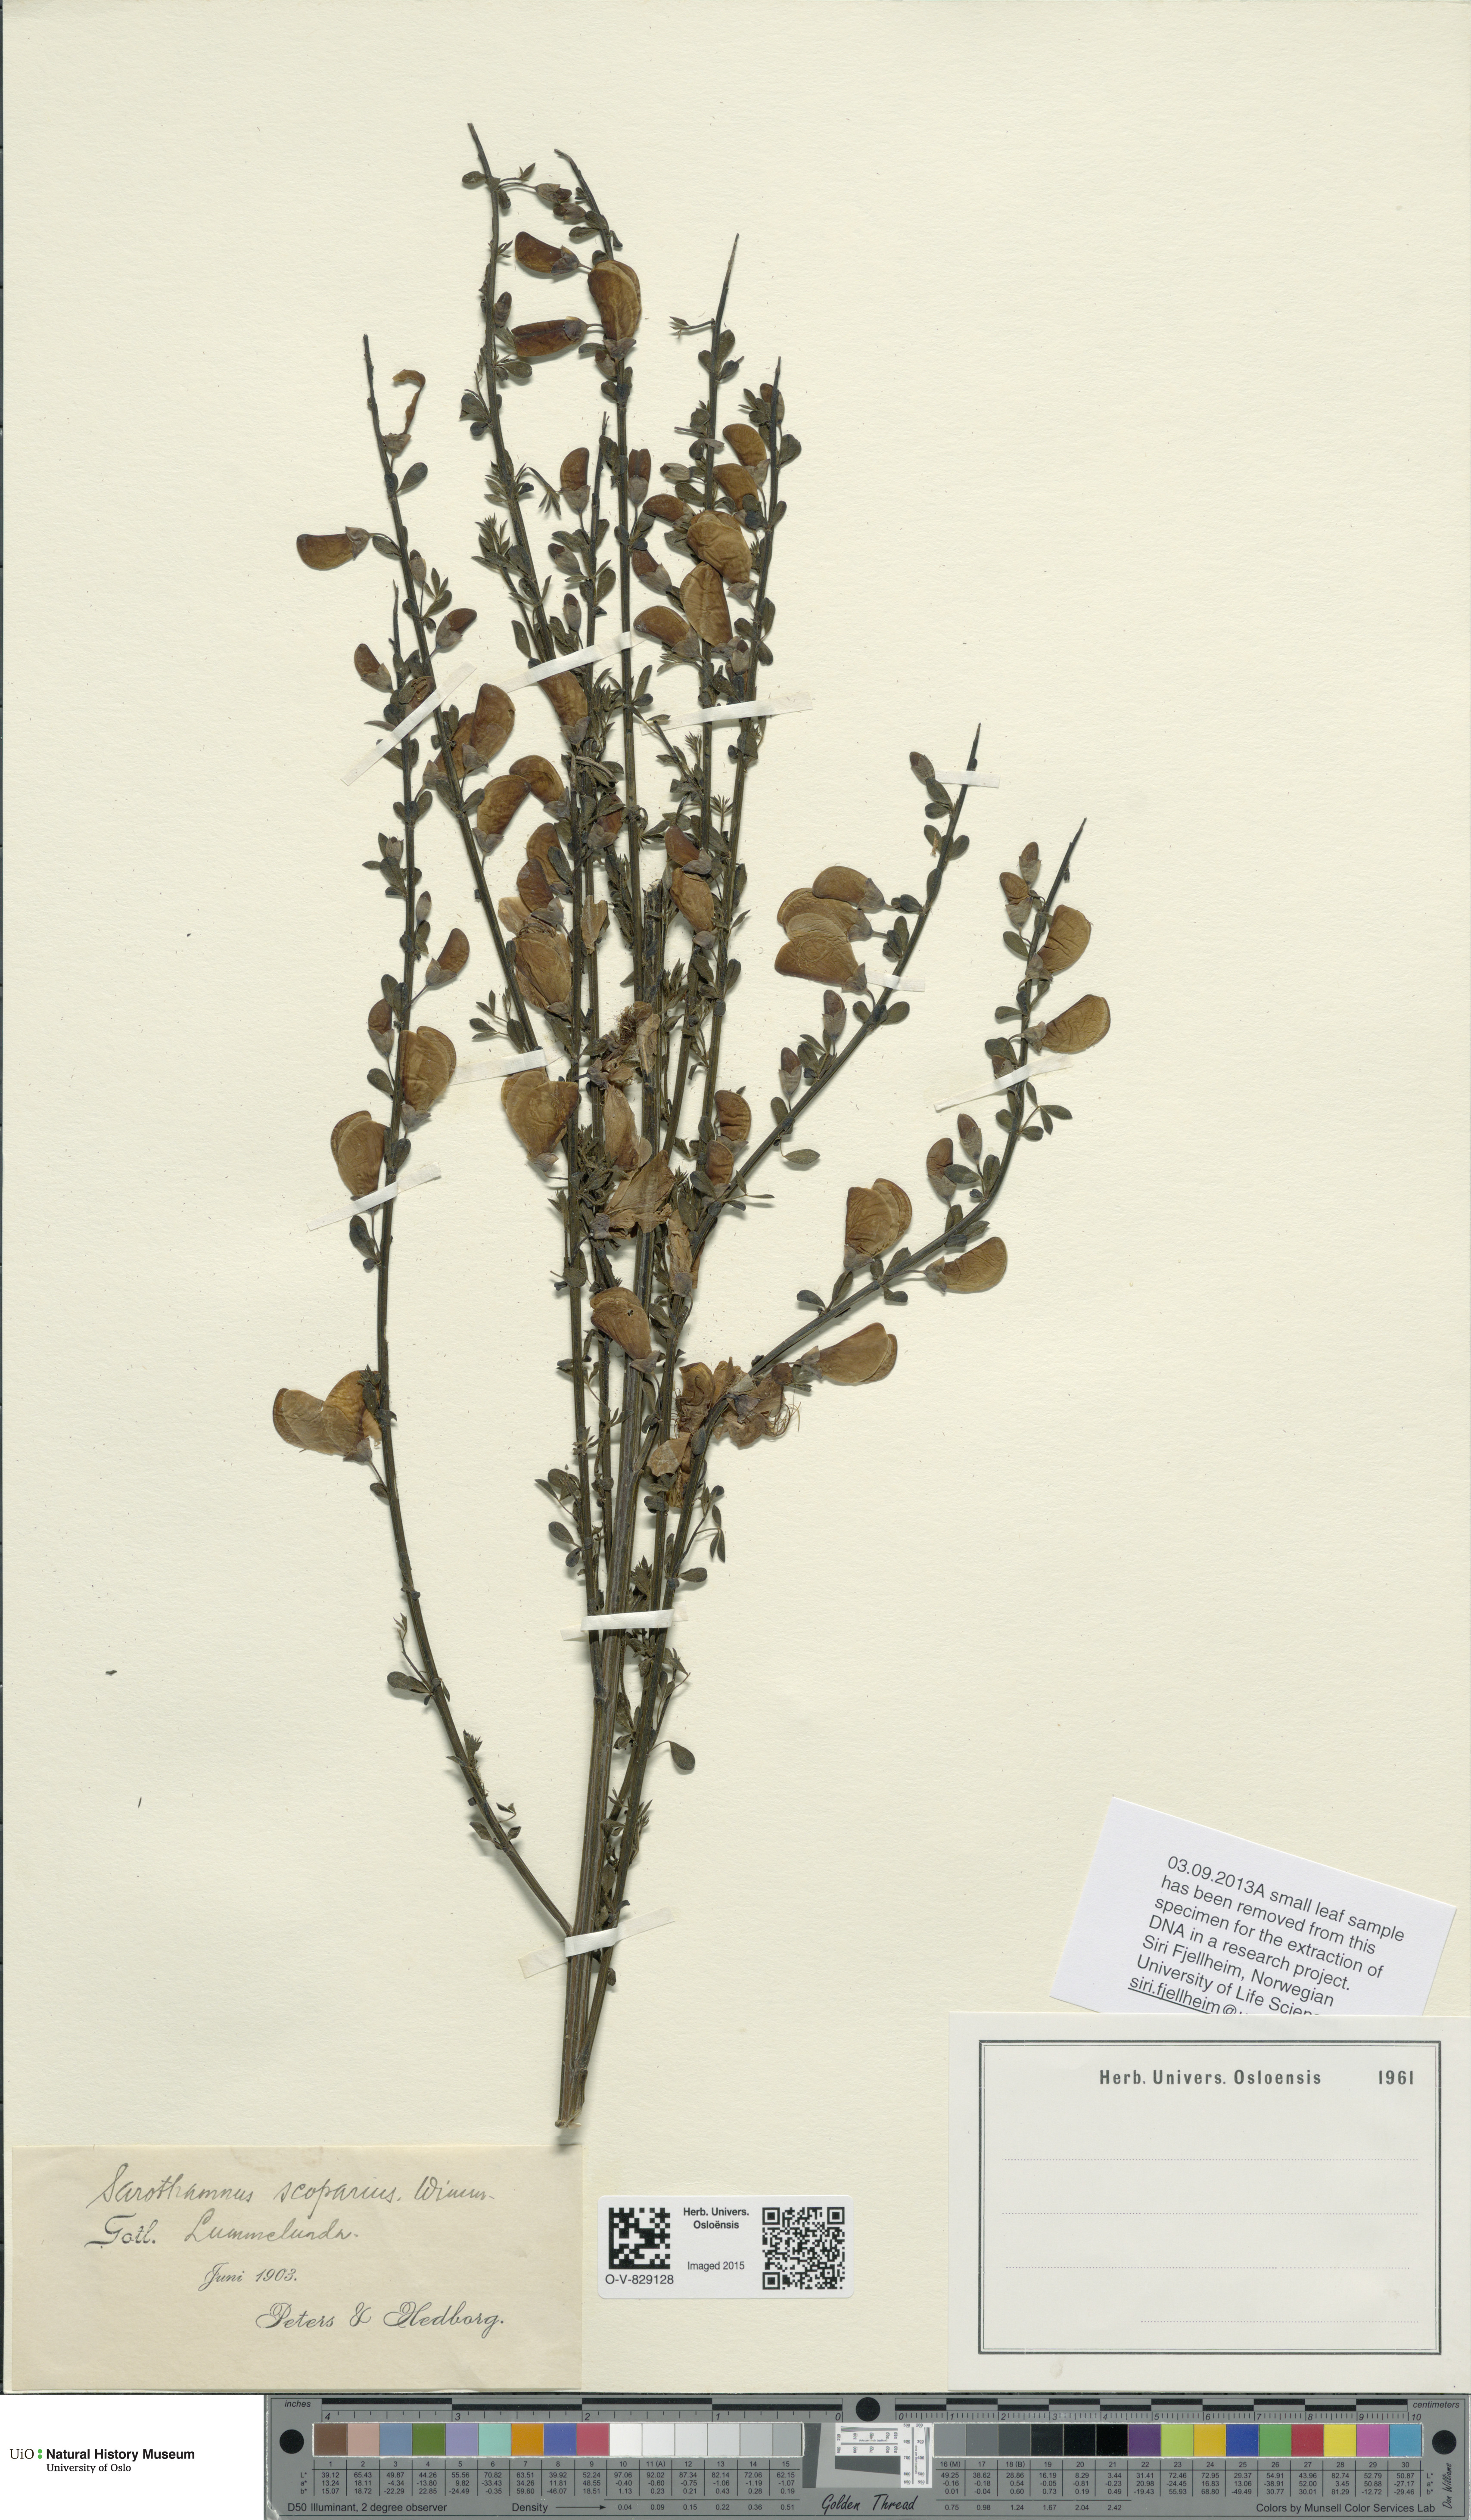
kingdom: Plantae
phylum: Tracheophyta
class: Magnoliopsida
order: Fabales
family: Fabaceae
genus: Cytisus
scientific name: Cytisus scoparius
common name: Scotch broom
